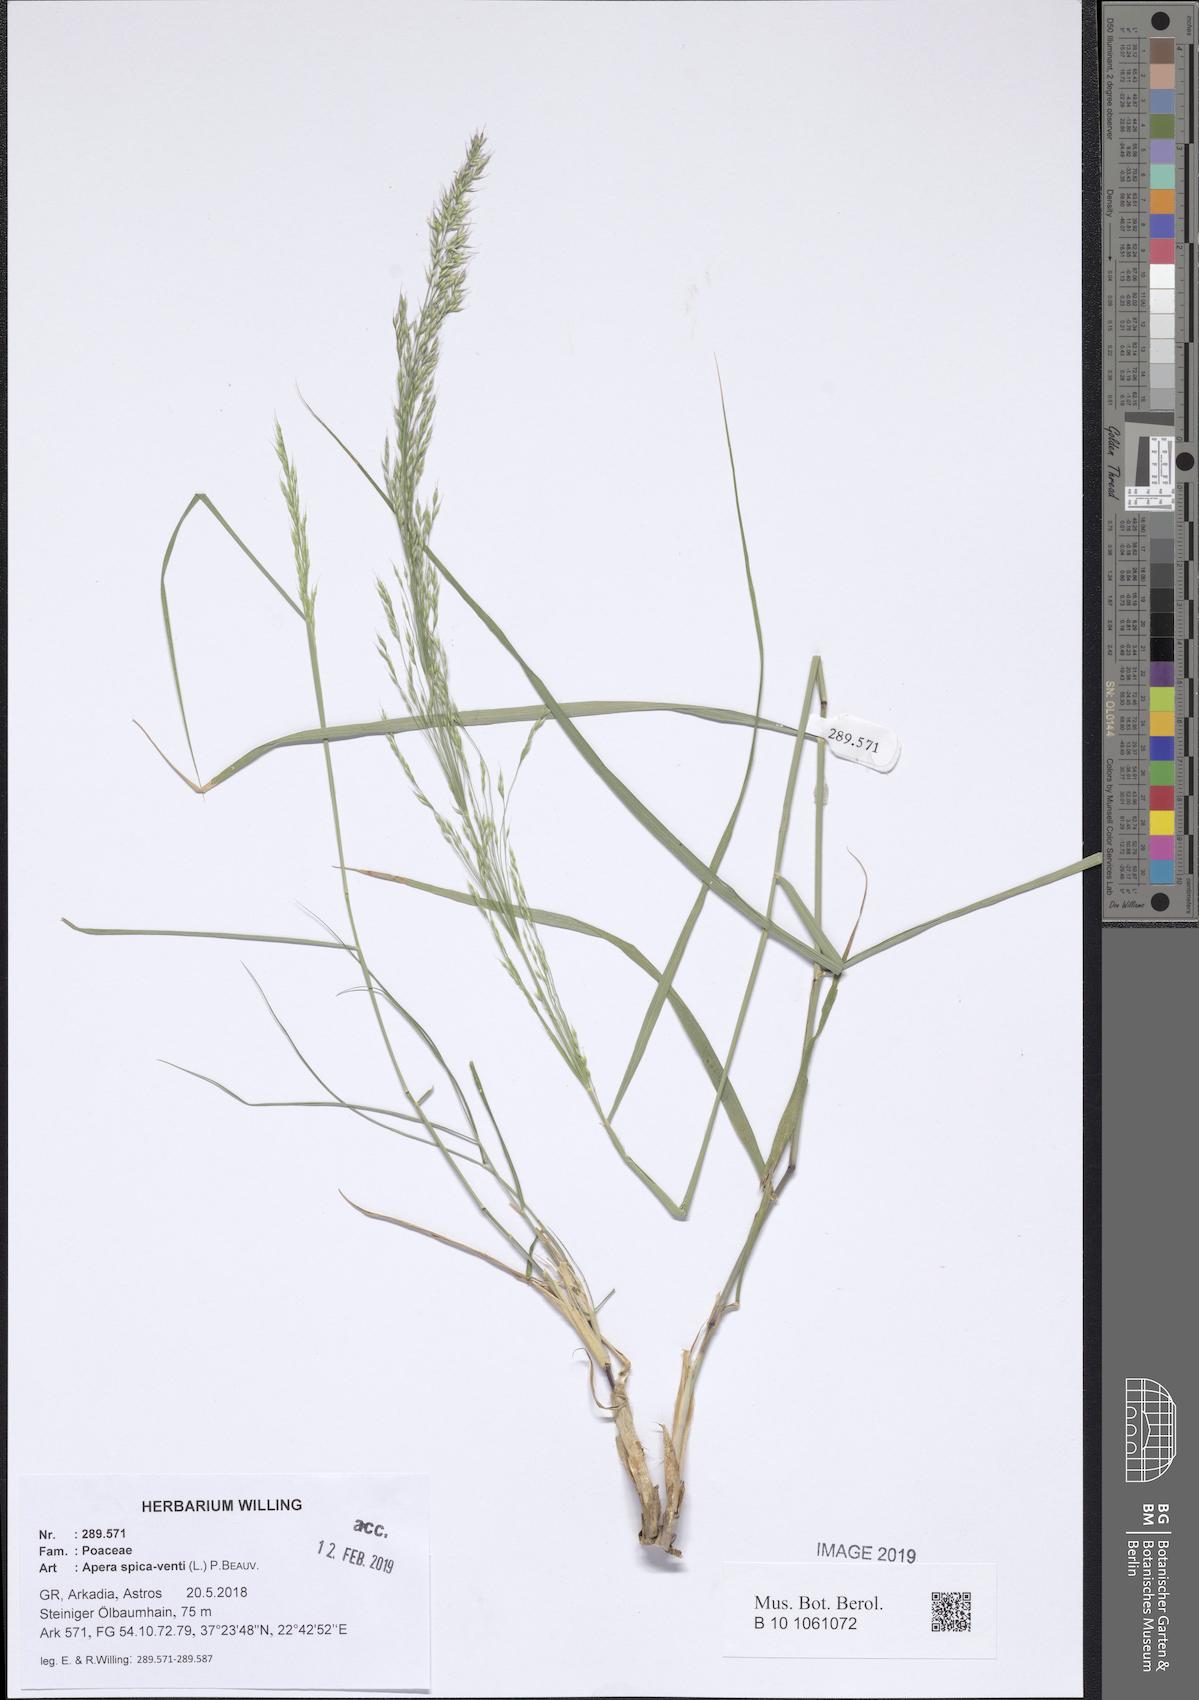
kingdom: Plantae
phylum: Tracheophyta
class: Liliopsida
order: Poales
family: Poaceae
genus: Apera
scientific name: Apera spica-venti
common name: Loose silky-bent
